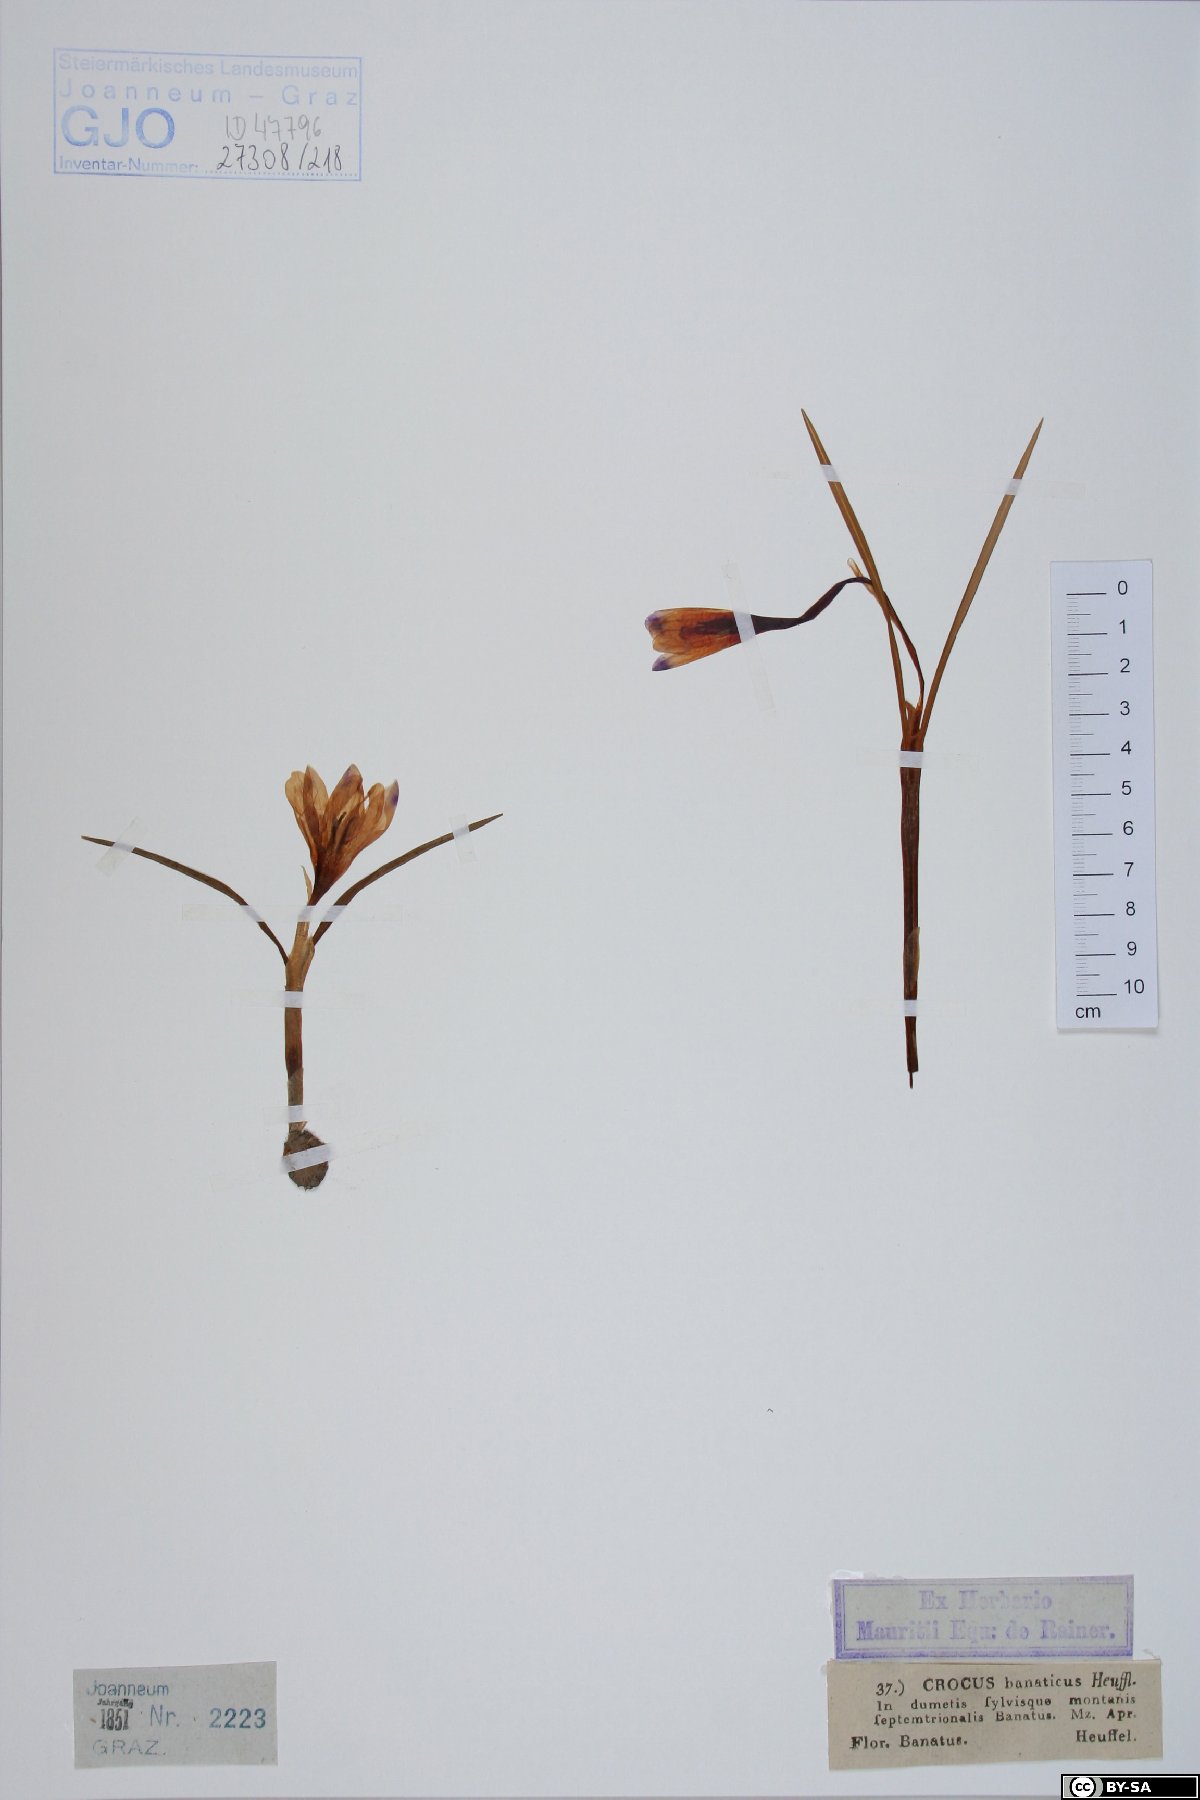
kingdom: Plantae
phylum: Tracheophyta
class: Liliopsida
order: Asparagales
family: Iridaceae
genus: Crocus
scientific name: Crocus banaticus
